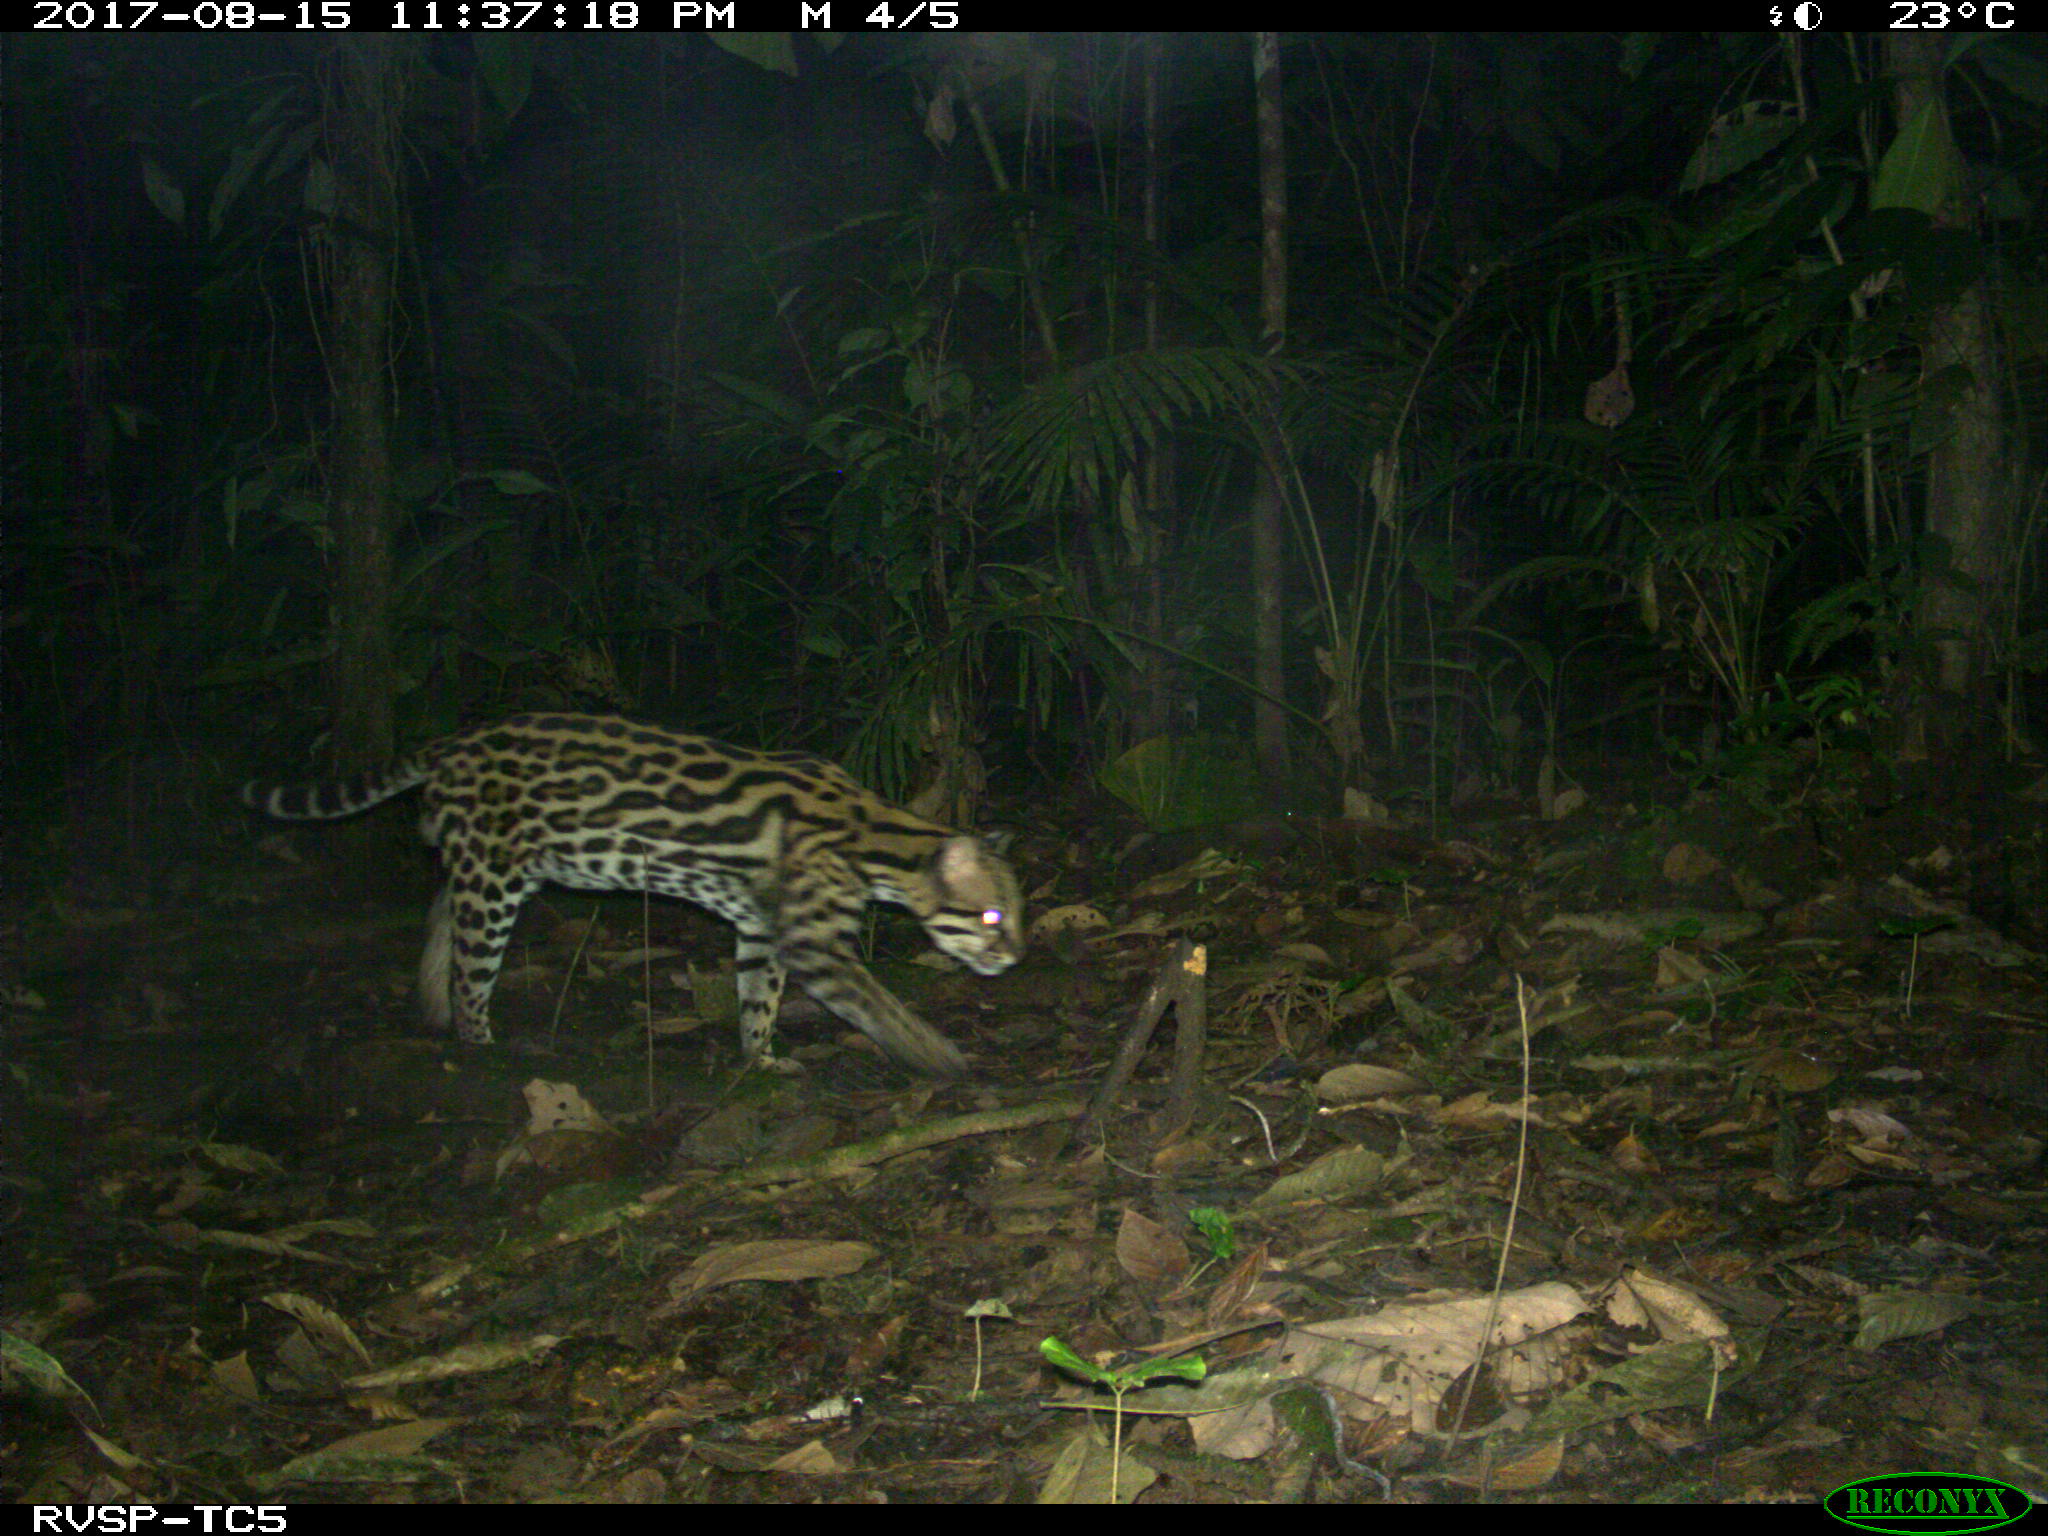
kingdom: Animalia
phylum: Chordata
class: Mammalia
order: Carnivora
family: Felidae
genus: Leopardus
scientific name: Leopardus pardalis
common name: Ocelot
